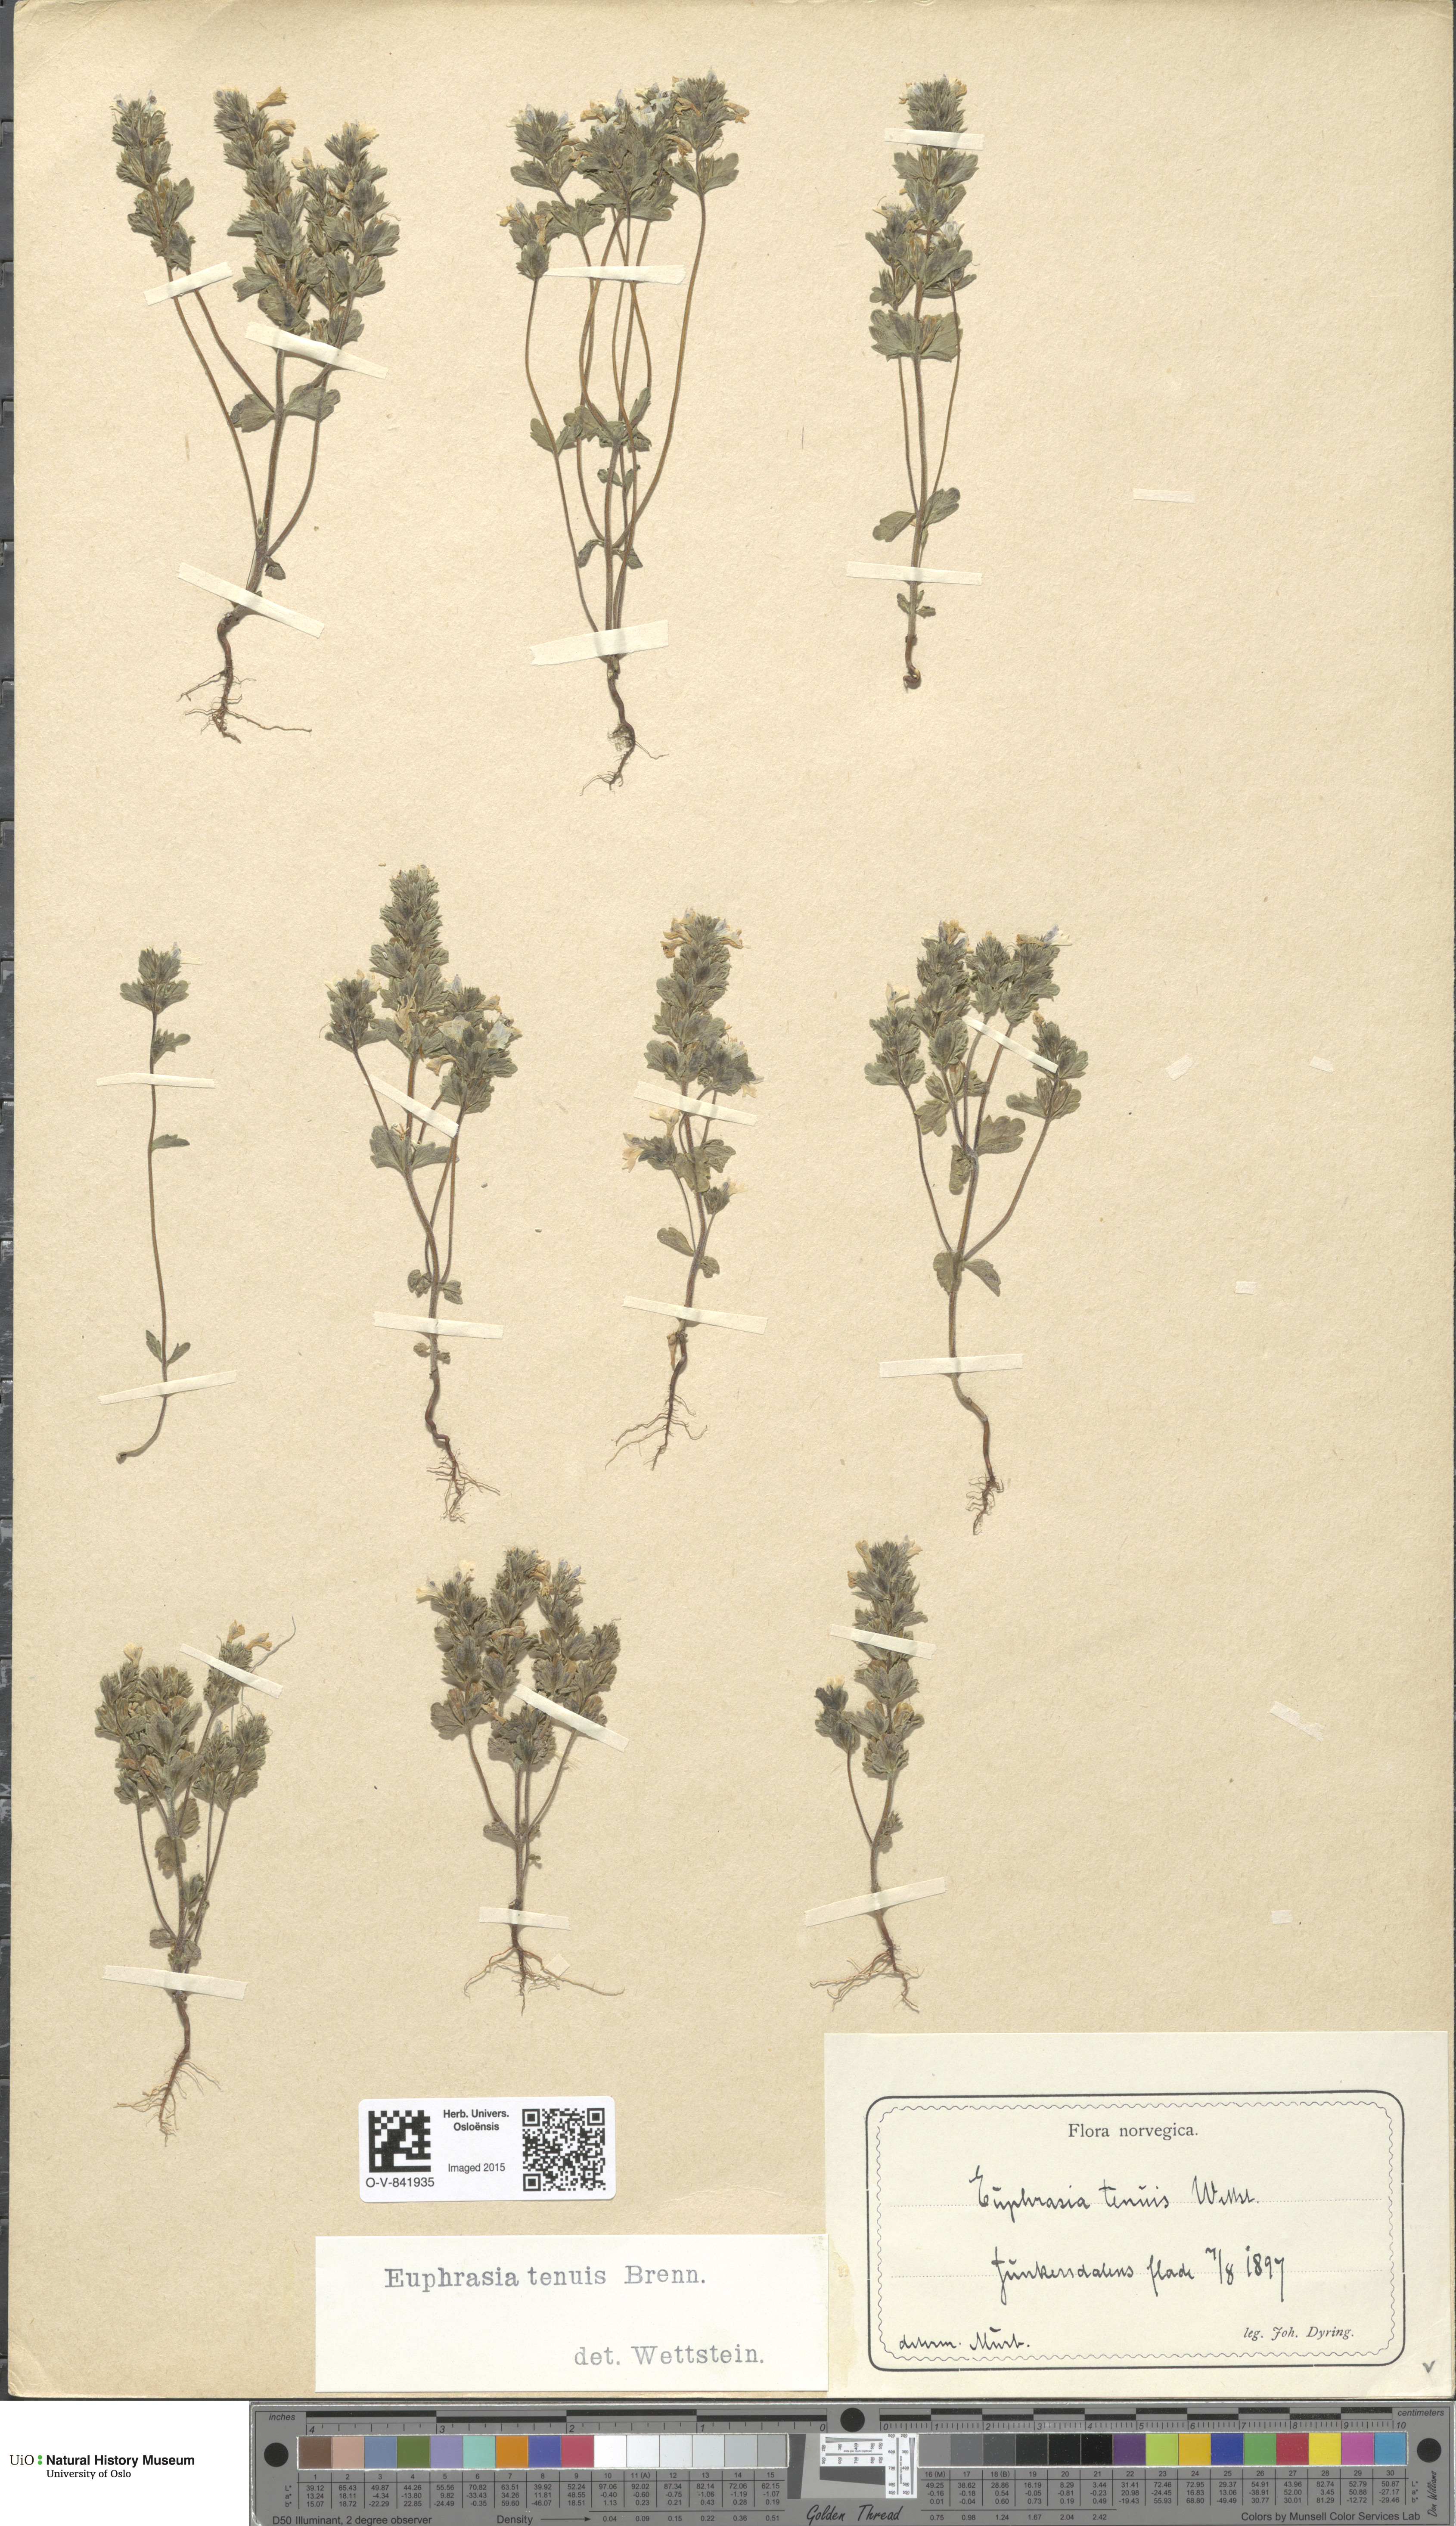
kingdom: Plantae
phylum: Tracheophyta
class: Magnoliopsida
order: Lamiales
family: Orobanchaceae
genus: Euphrasia
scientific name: Euphrasia vernalis
